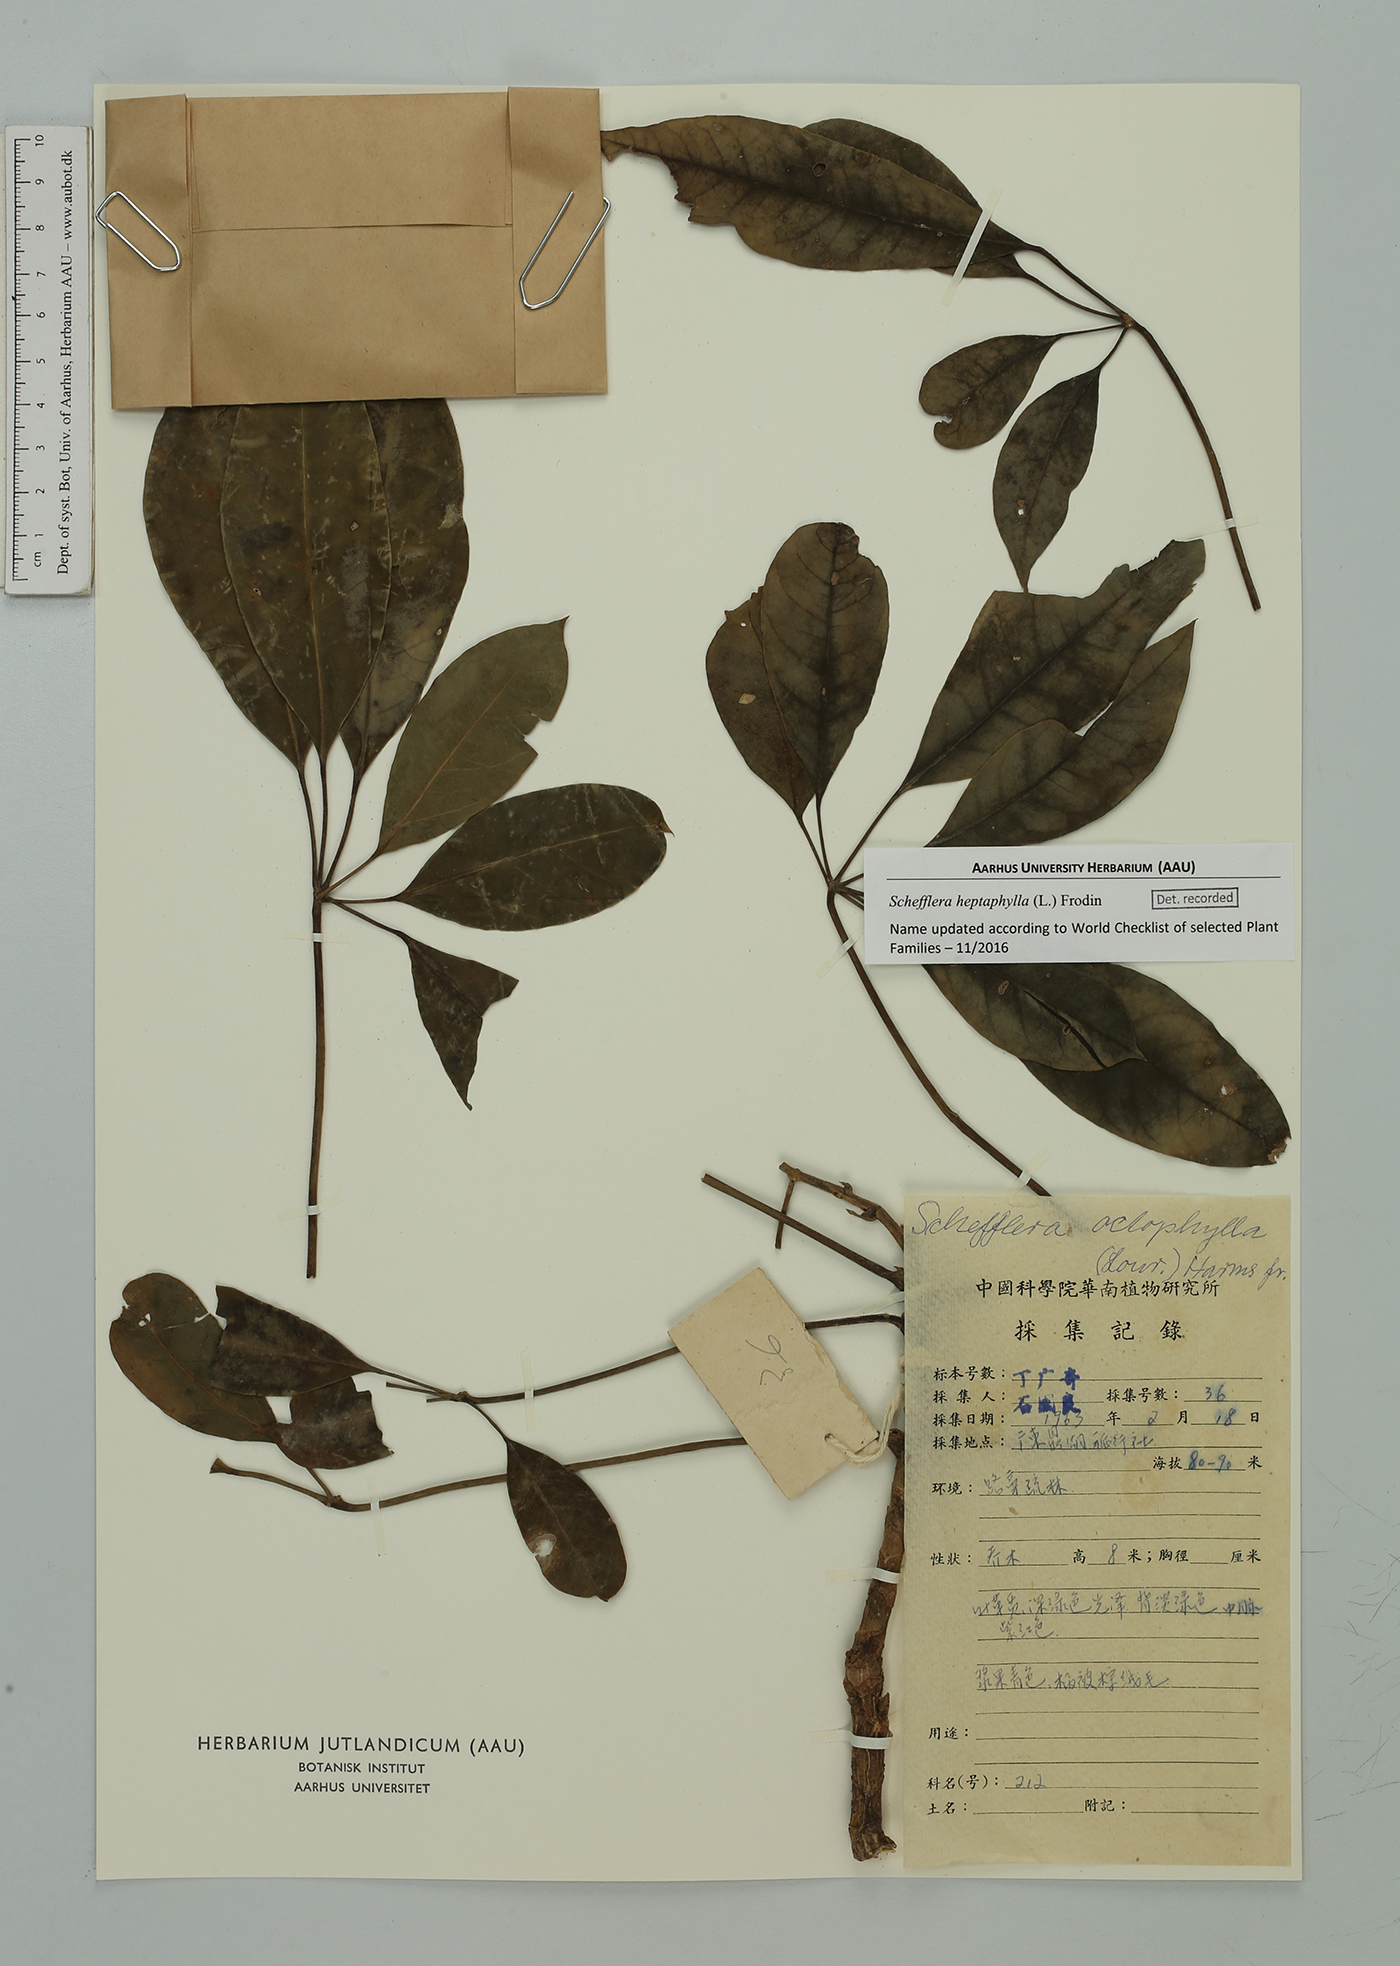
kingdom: Plantae
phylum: Tracheophyta
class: Magnoliopsida
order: Apiales
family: Araliaceae
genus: Heptapleurum
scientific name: Heptapleurum heptaphyllum
